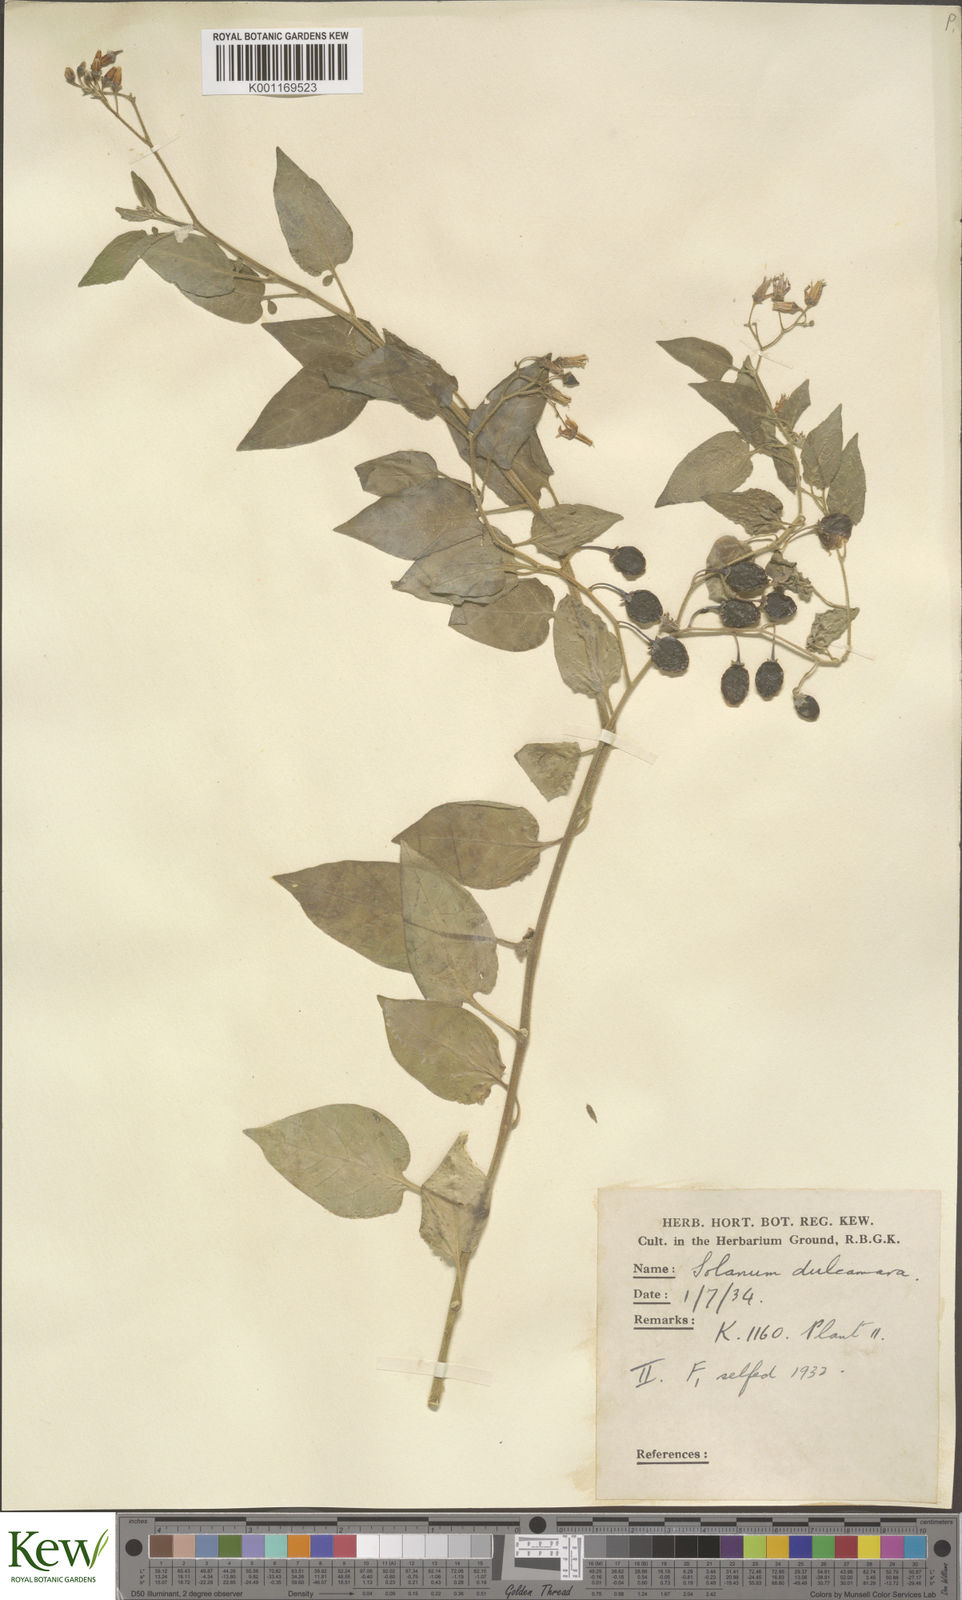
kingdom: Plantae
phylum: Tracheophyta
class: Magnoliopsida
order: Solanales
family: Solanaceae
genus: Solanum
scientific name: Solanum dulcamara
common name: Climbing nightshade
